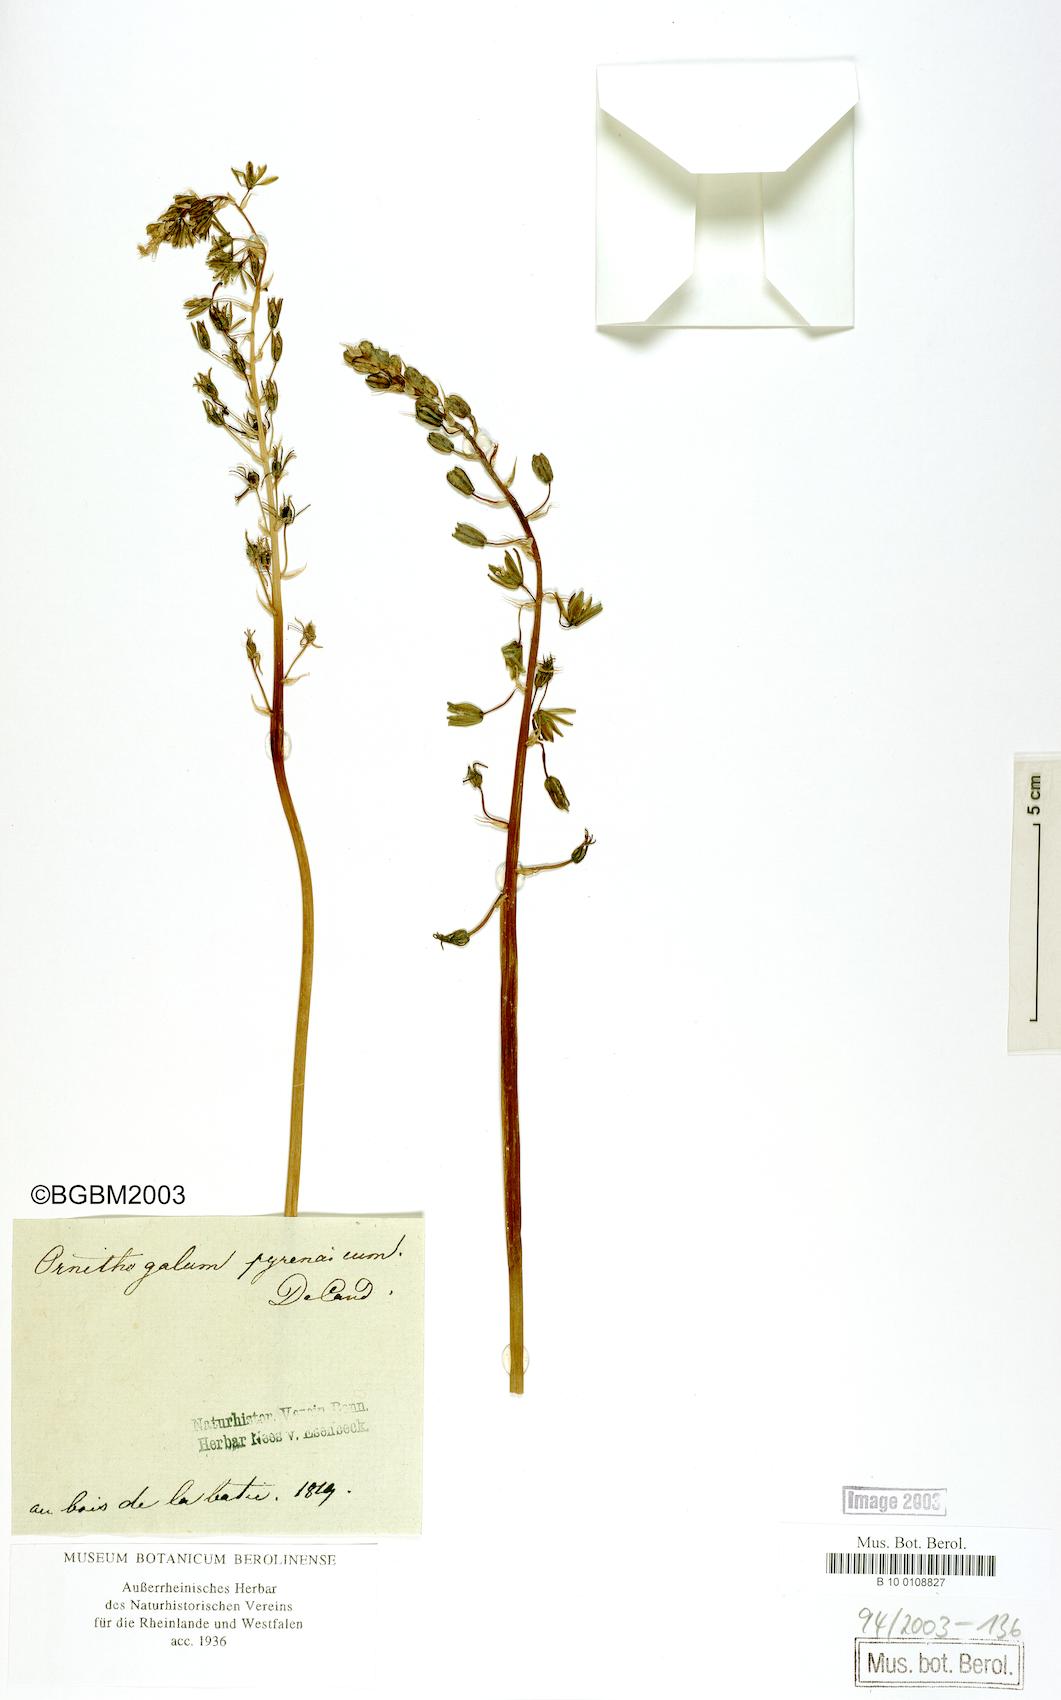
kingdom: Plantae
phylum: Tracheophyta
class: Liliopsida
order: Asparagales
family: Asparagaceae
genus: Ornithogalum
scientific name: Ornithogalum pyrenaicum
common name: Spiked star-of-bethlehem
